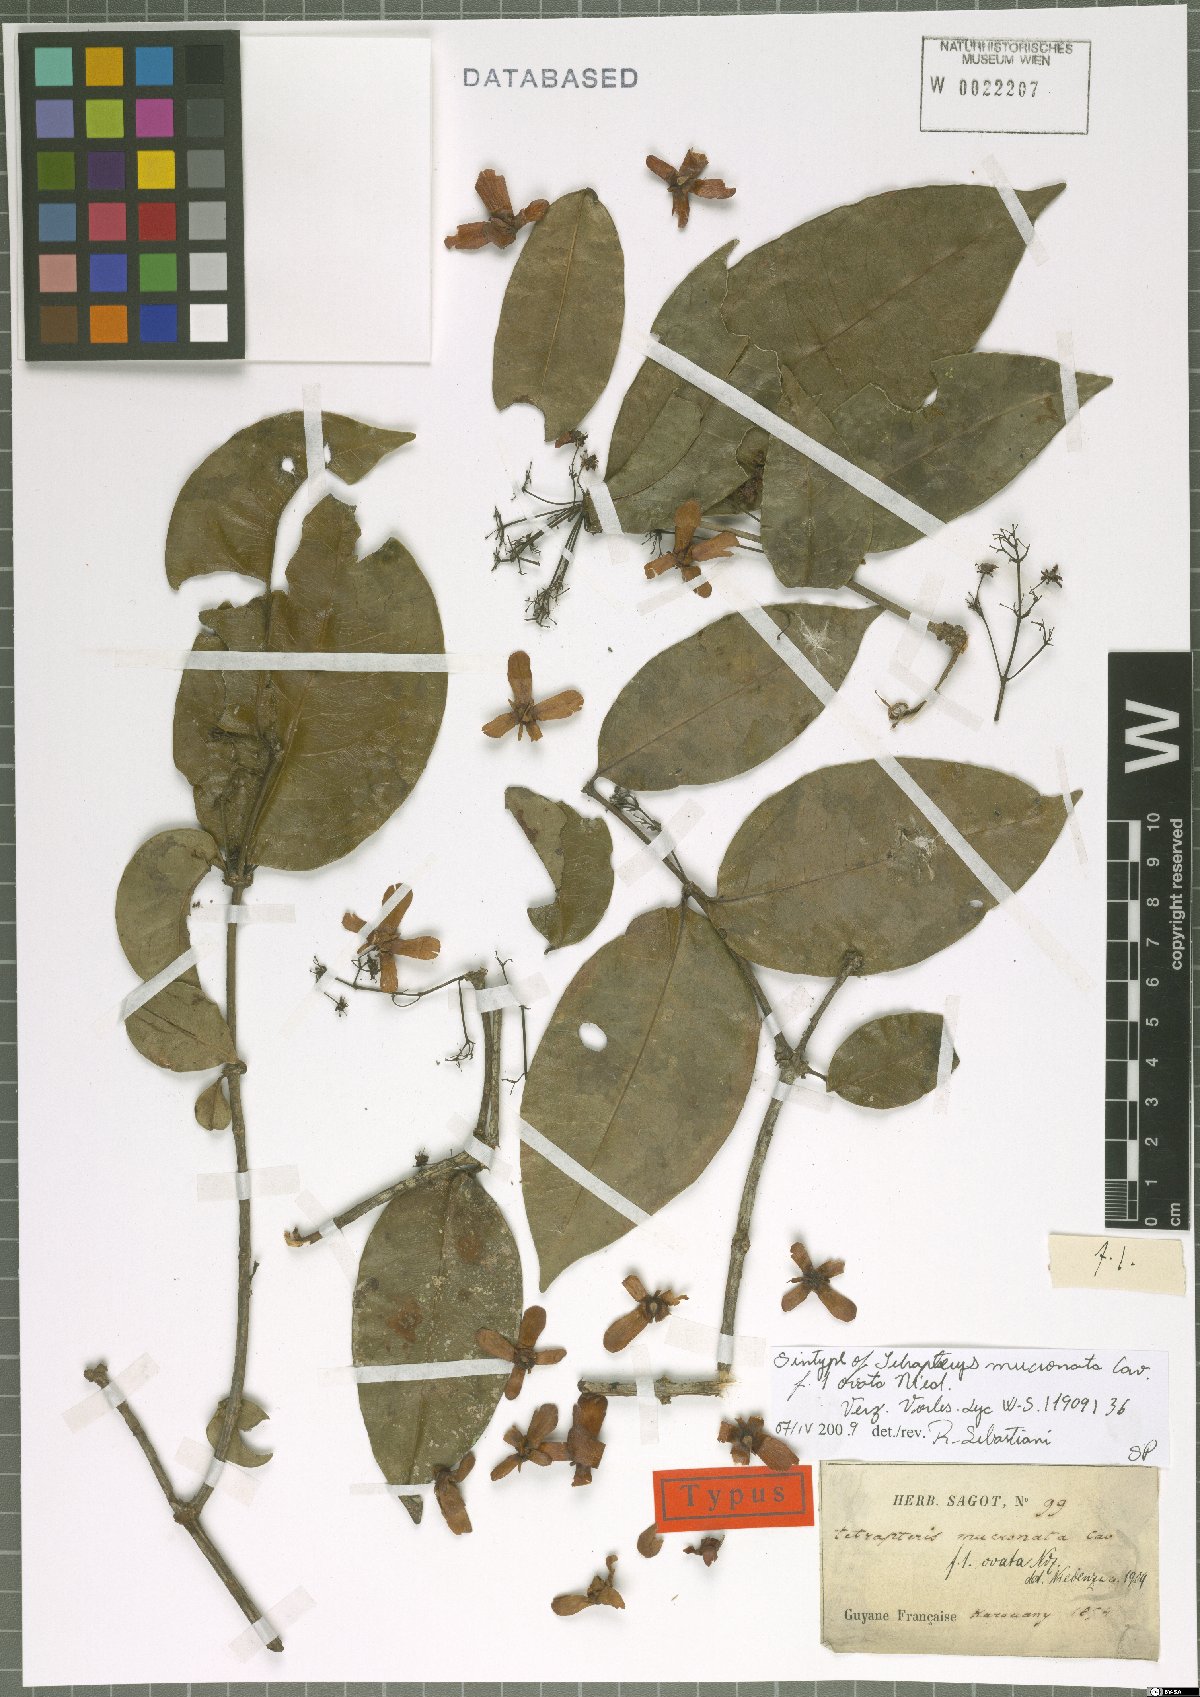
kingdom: Plantae
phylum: Tracheophyta
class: Magnoliopsida
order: Malpighiales
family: Malpighiaceae
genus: Tetrapterys
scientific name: Tetrapterys mucronata
